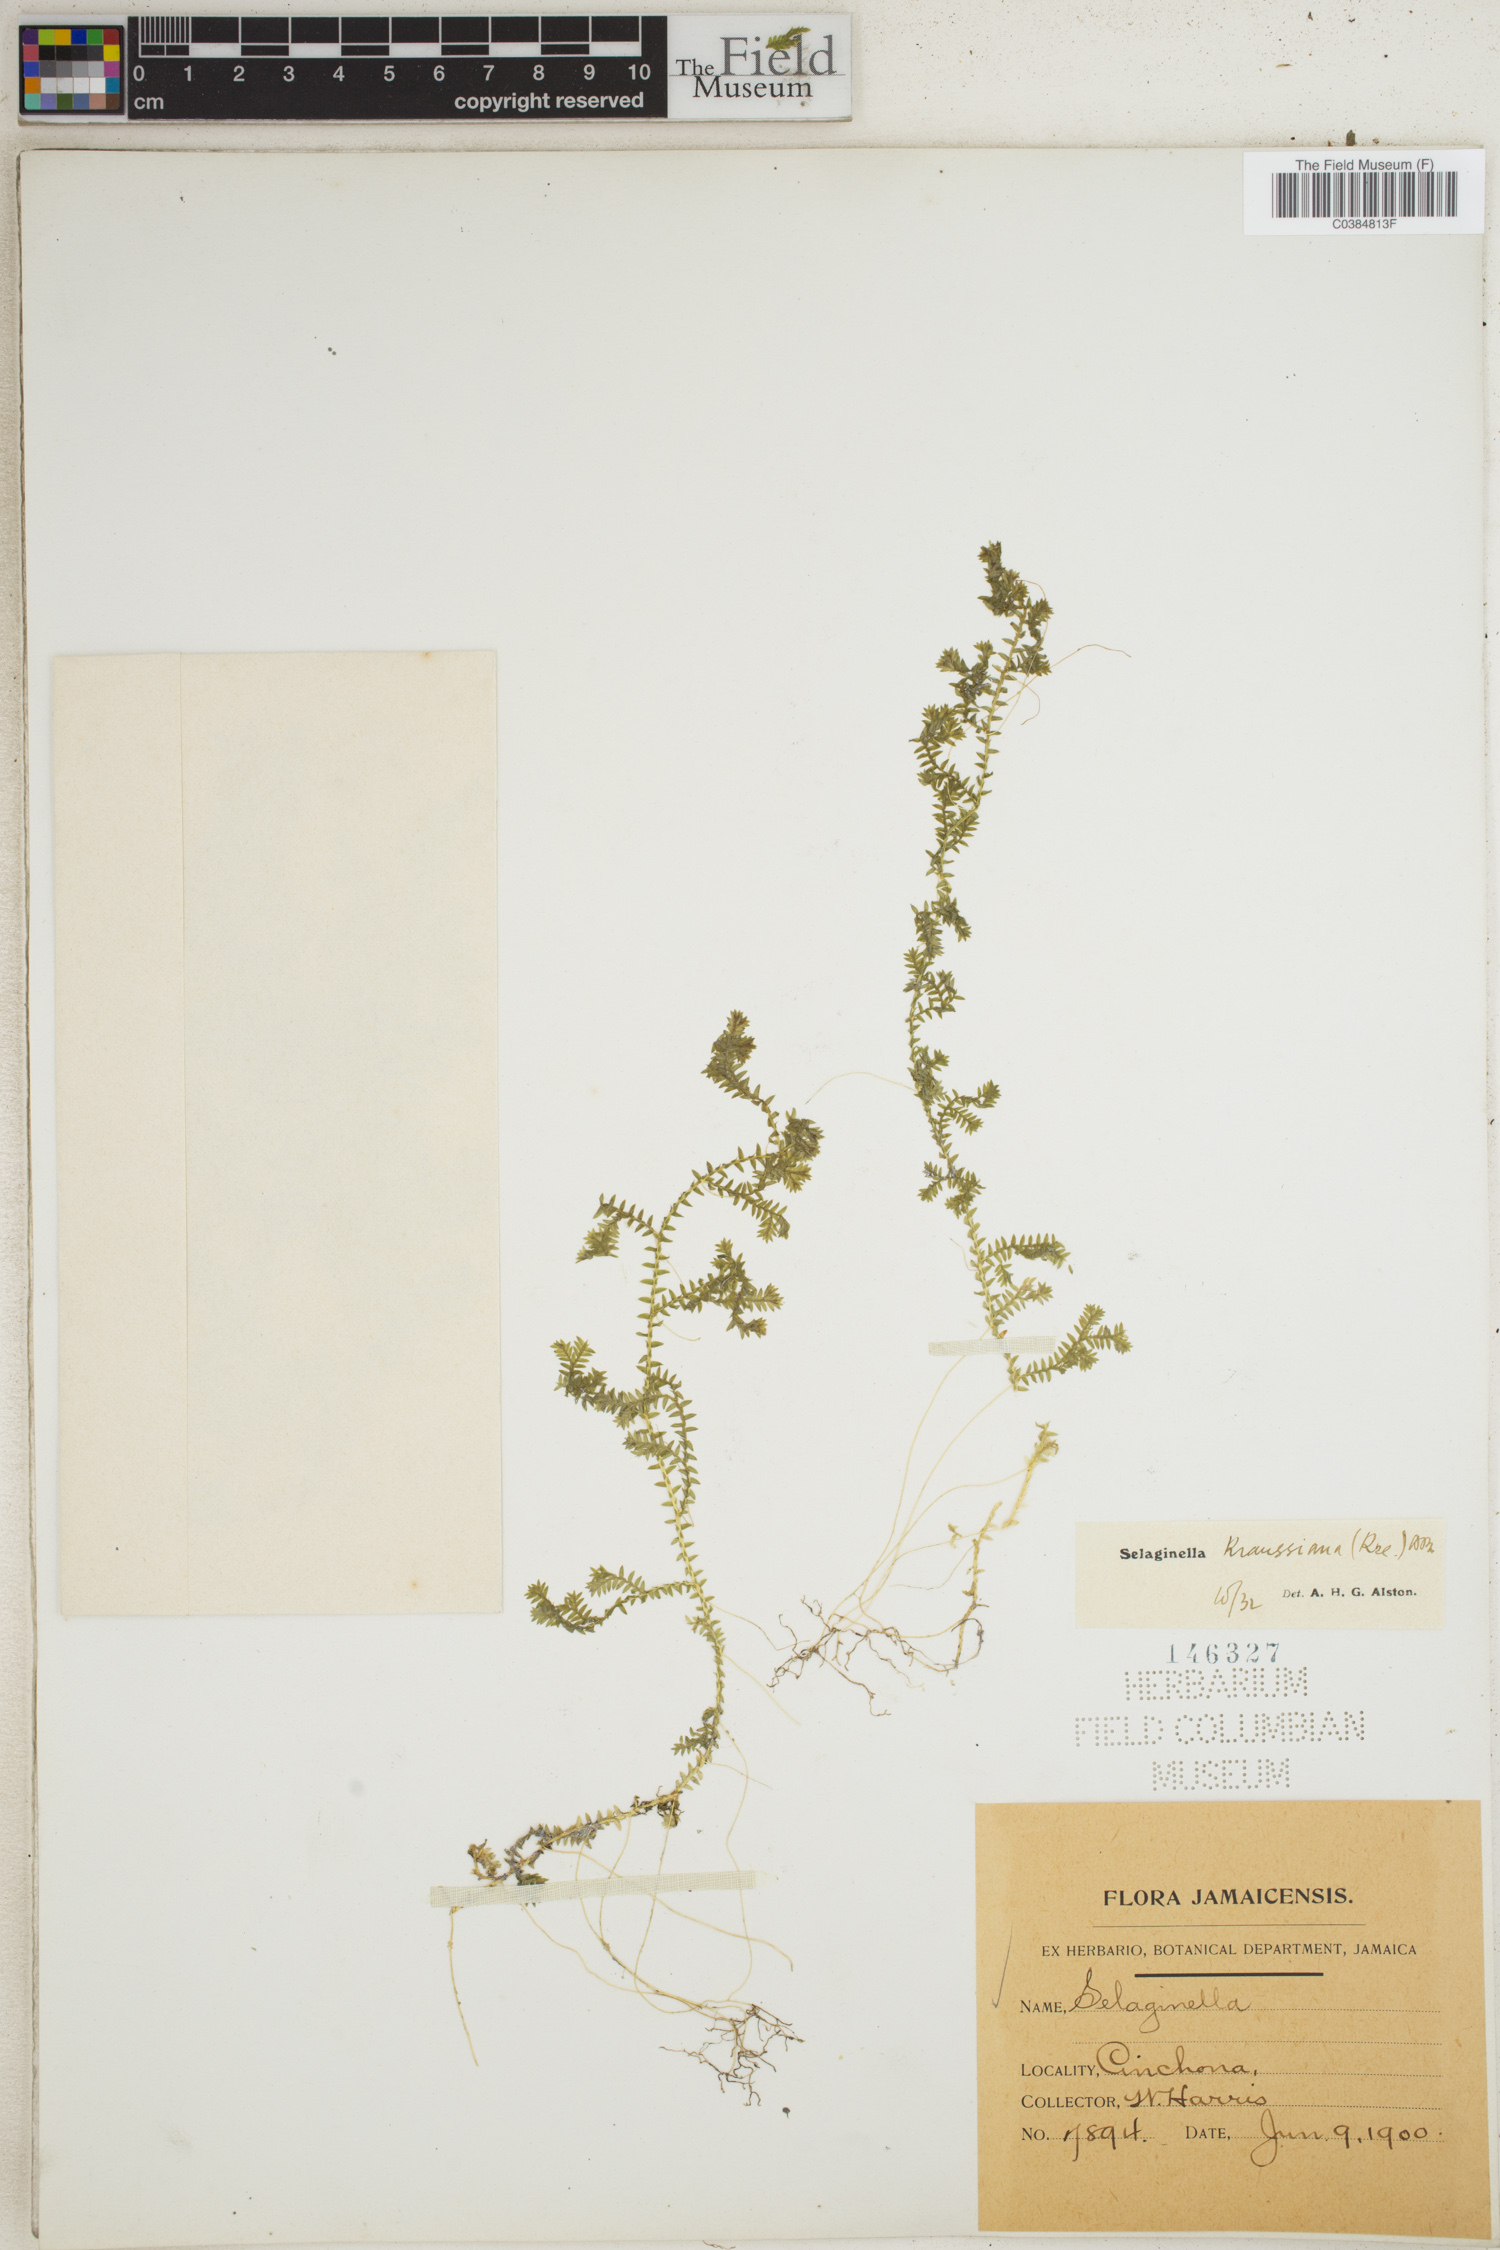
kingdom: Plantae
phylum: Tracheophyta
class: Lycopodiopsida
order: Selaginellales
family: Selaginellaceae
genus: Selaginella
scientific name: Selaginella kraussiana
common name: Krauss' spikemoss
